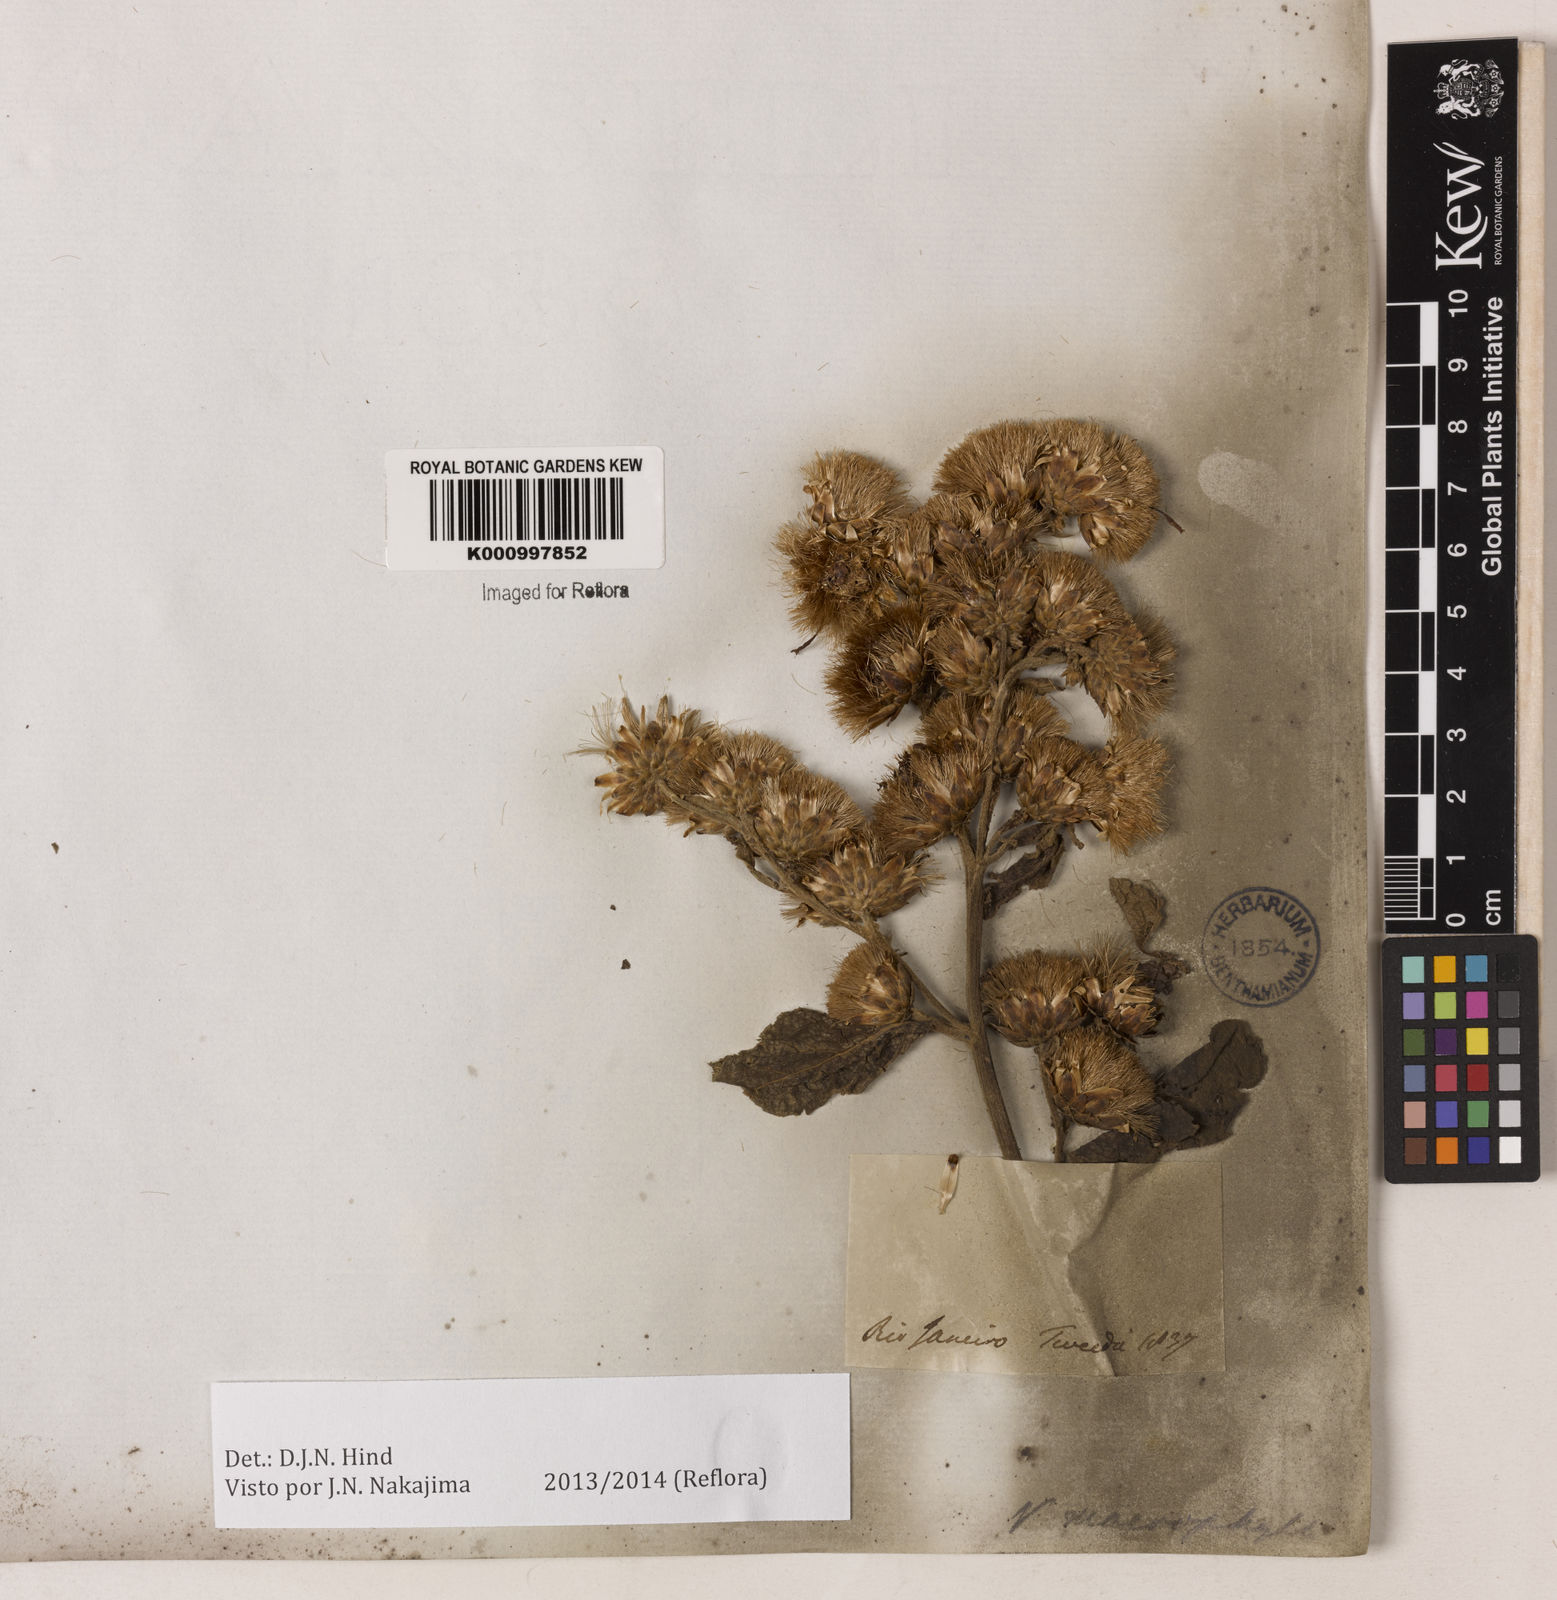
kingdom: Plantae
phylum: Tracheophyta
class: Magnoliopsida
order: Asterales
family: Asteraceae
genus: Lessingianthus
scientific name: Lessingianthus macrophyllus
